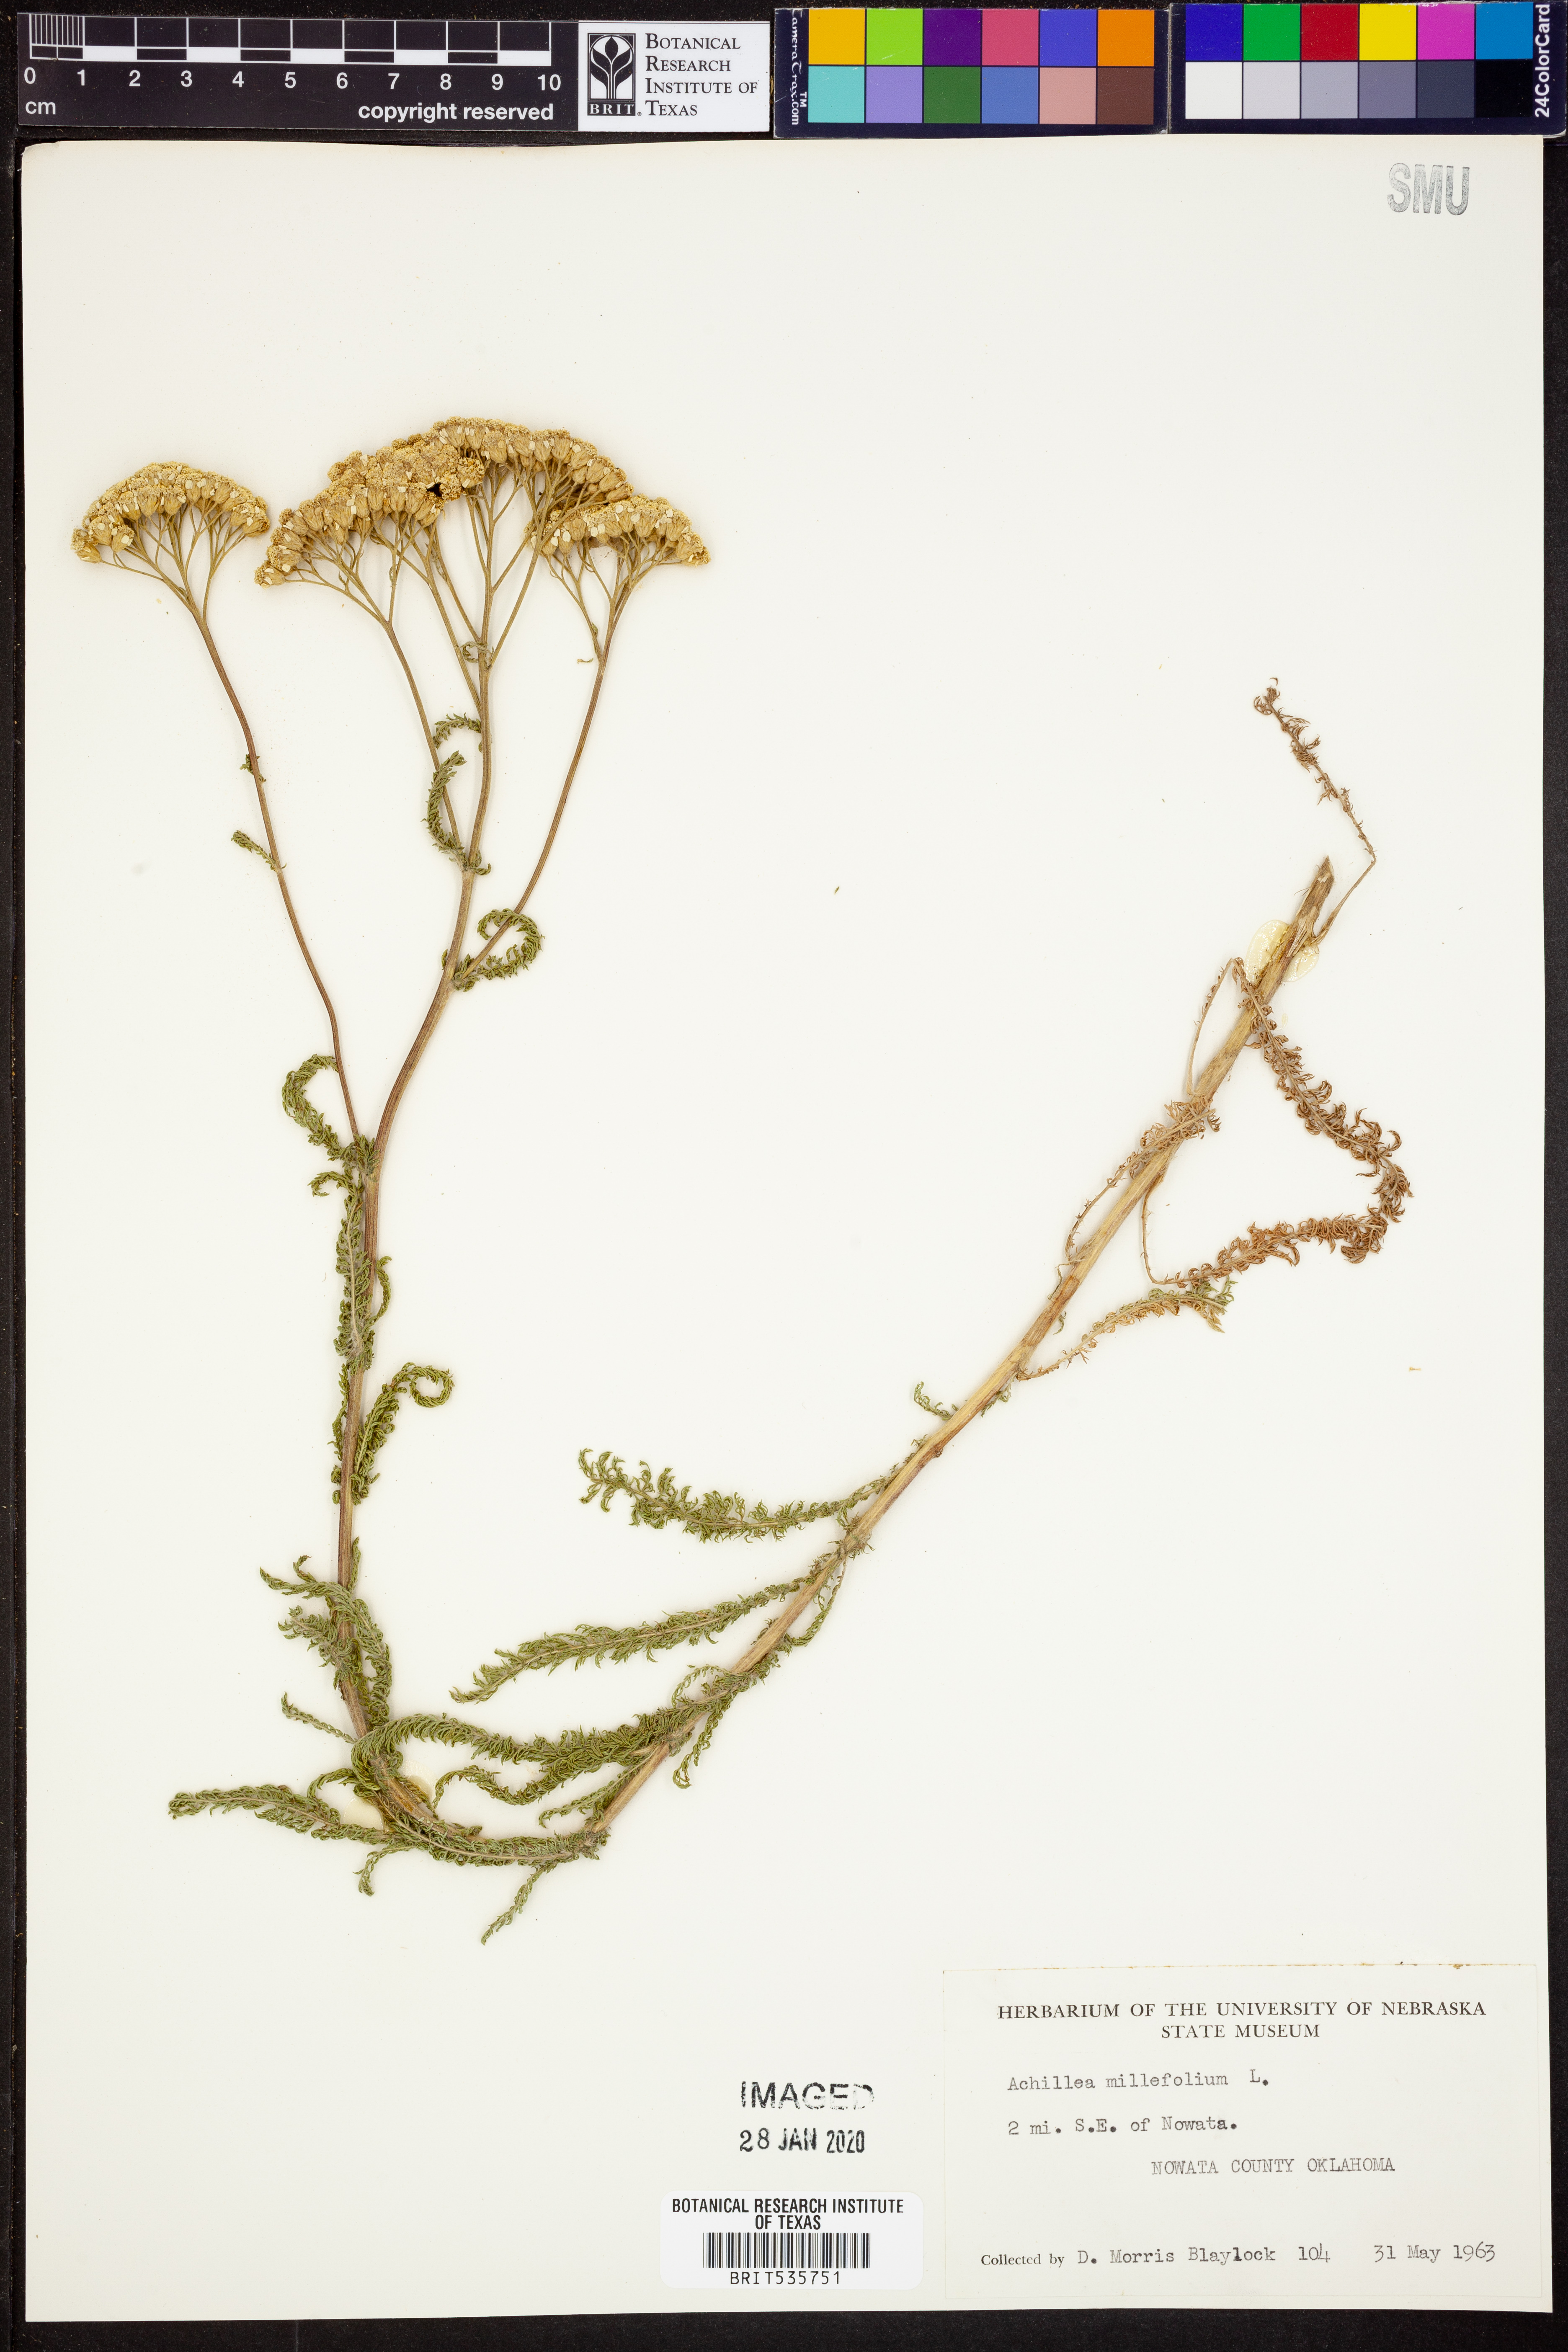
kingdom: Plantae
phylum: Tracheophyta
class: Magnoliopsida
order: Asterales
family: Asteraceae
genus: Achillea
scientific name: Achillea millefolium
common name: Yarrow
